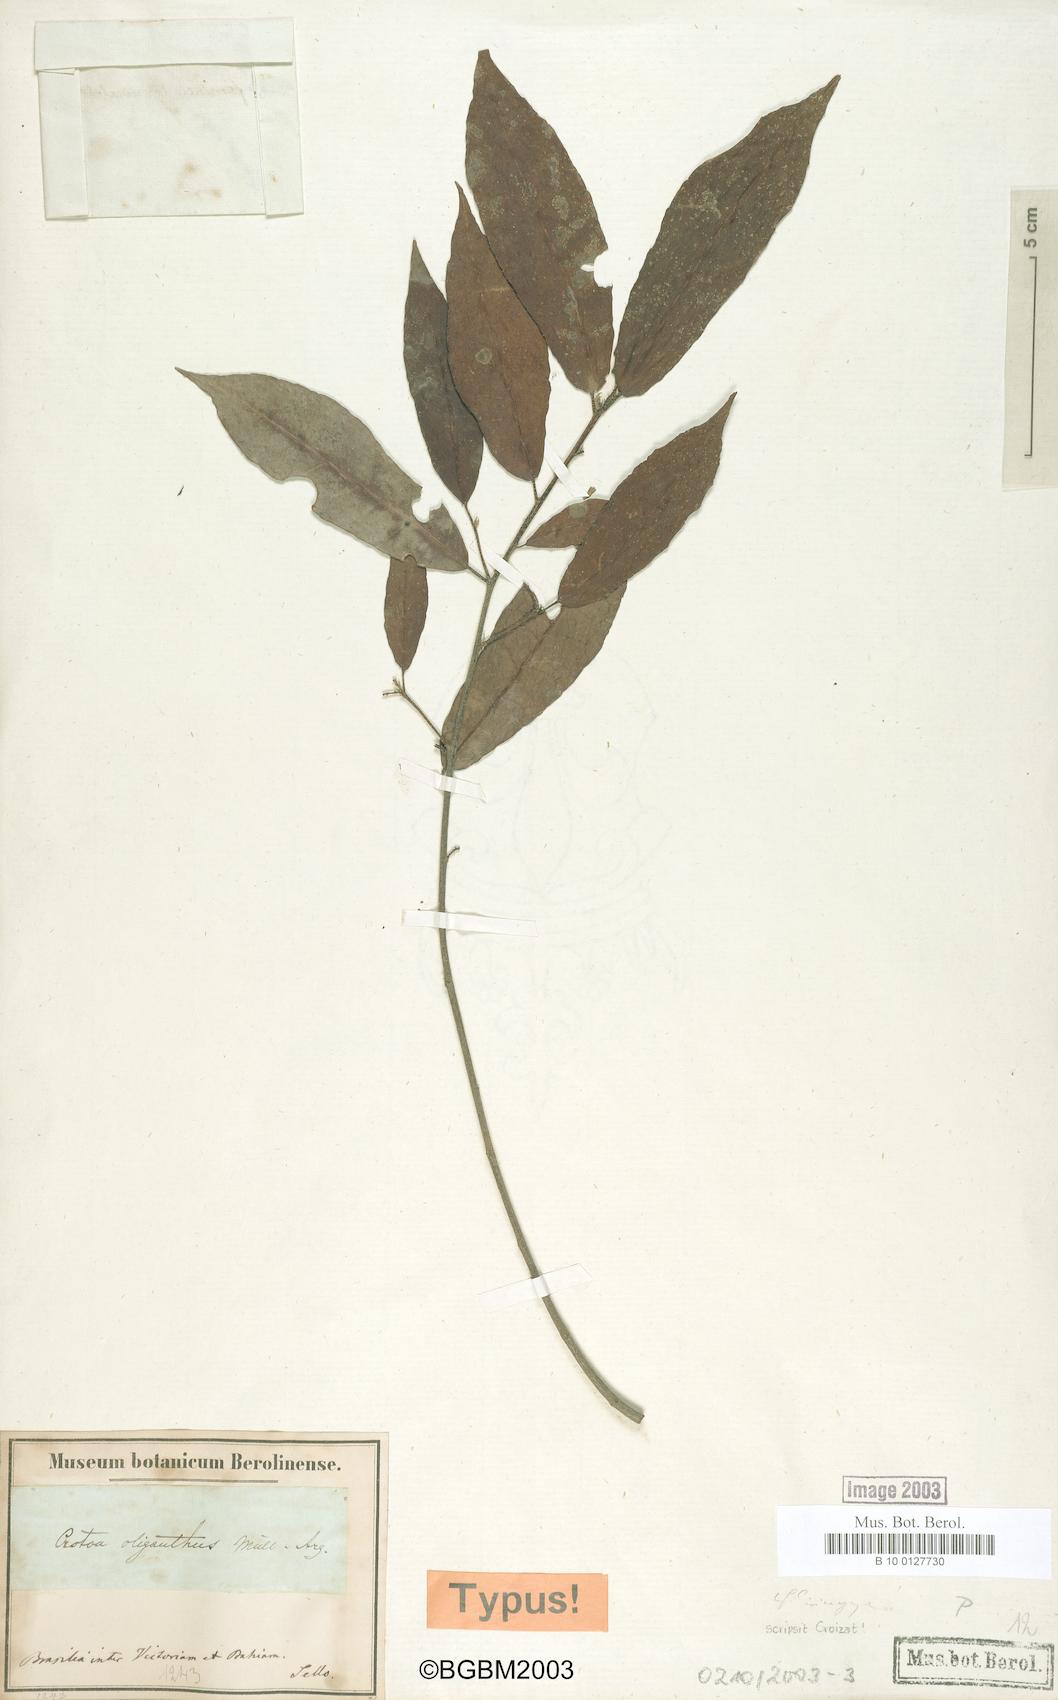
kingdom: Plantae
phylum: Tracheophyta
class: Magnoliopsida
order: Malpighiales
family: Euphorbiaceae
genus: Croton
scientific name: Croton oliganthus
